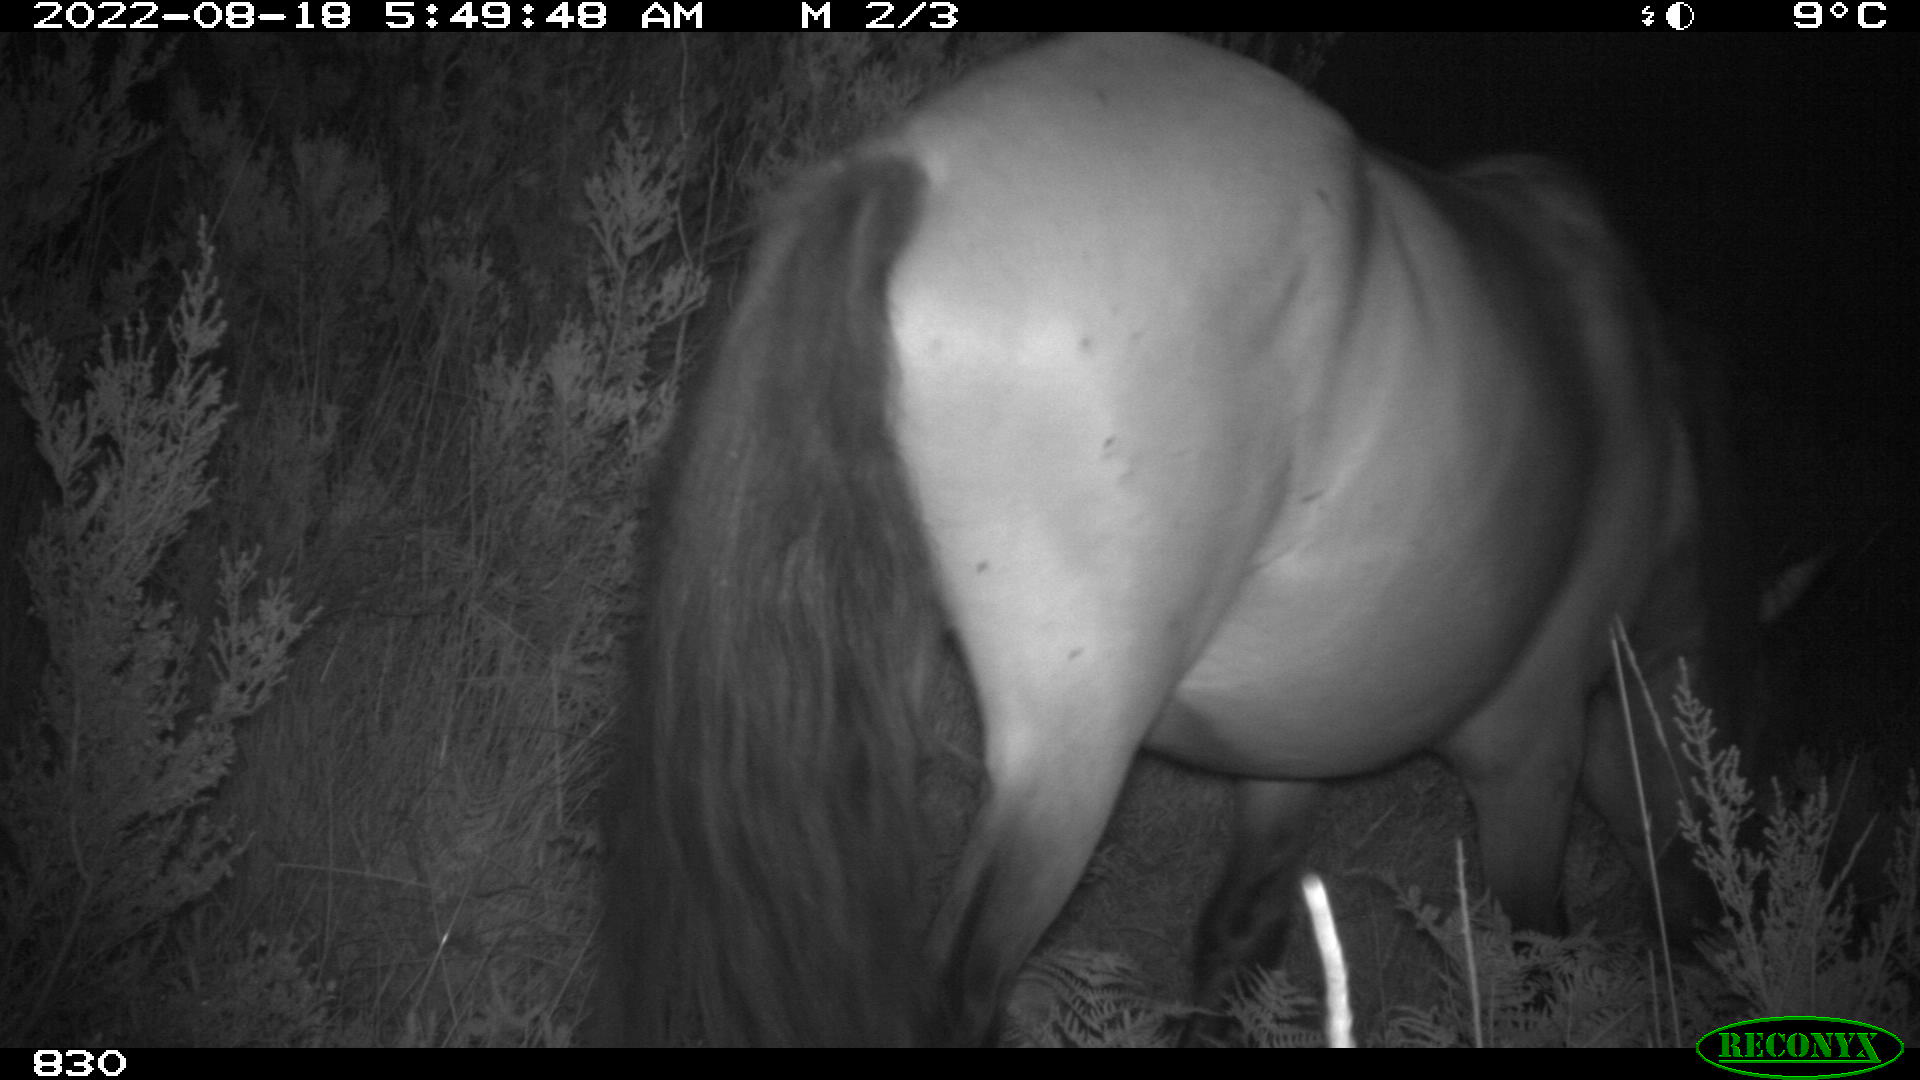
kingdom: Animalia
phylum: Chordata
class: Mammalia
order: Perissodactyla
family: Equidae
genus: Equus
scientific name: Equus caballus
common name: Horse
